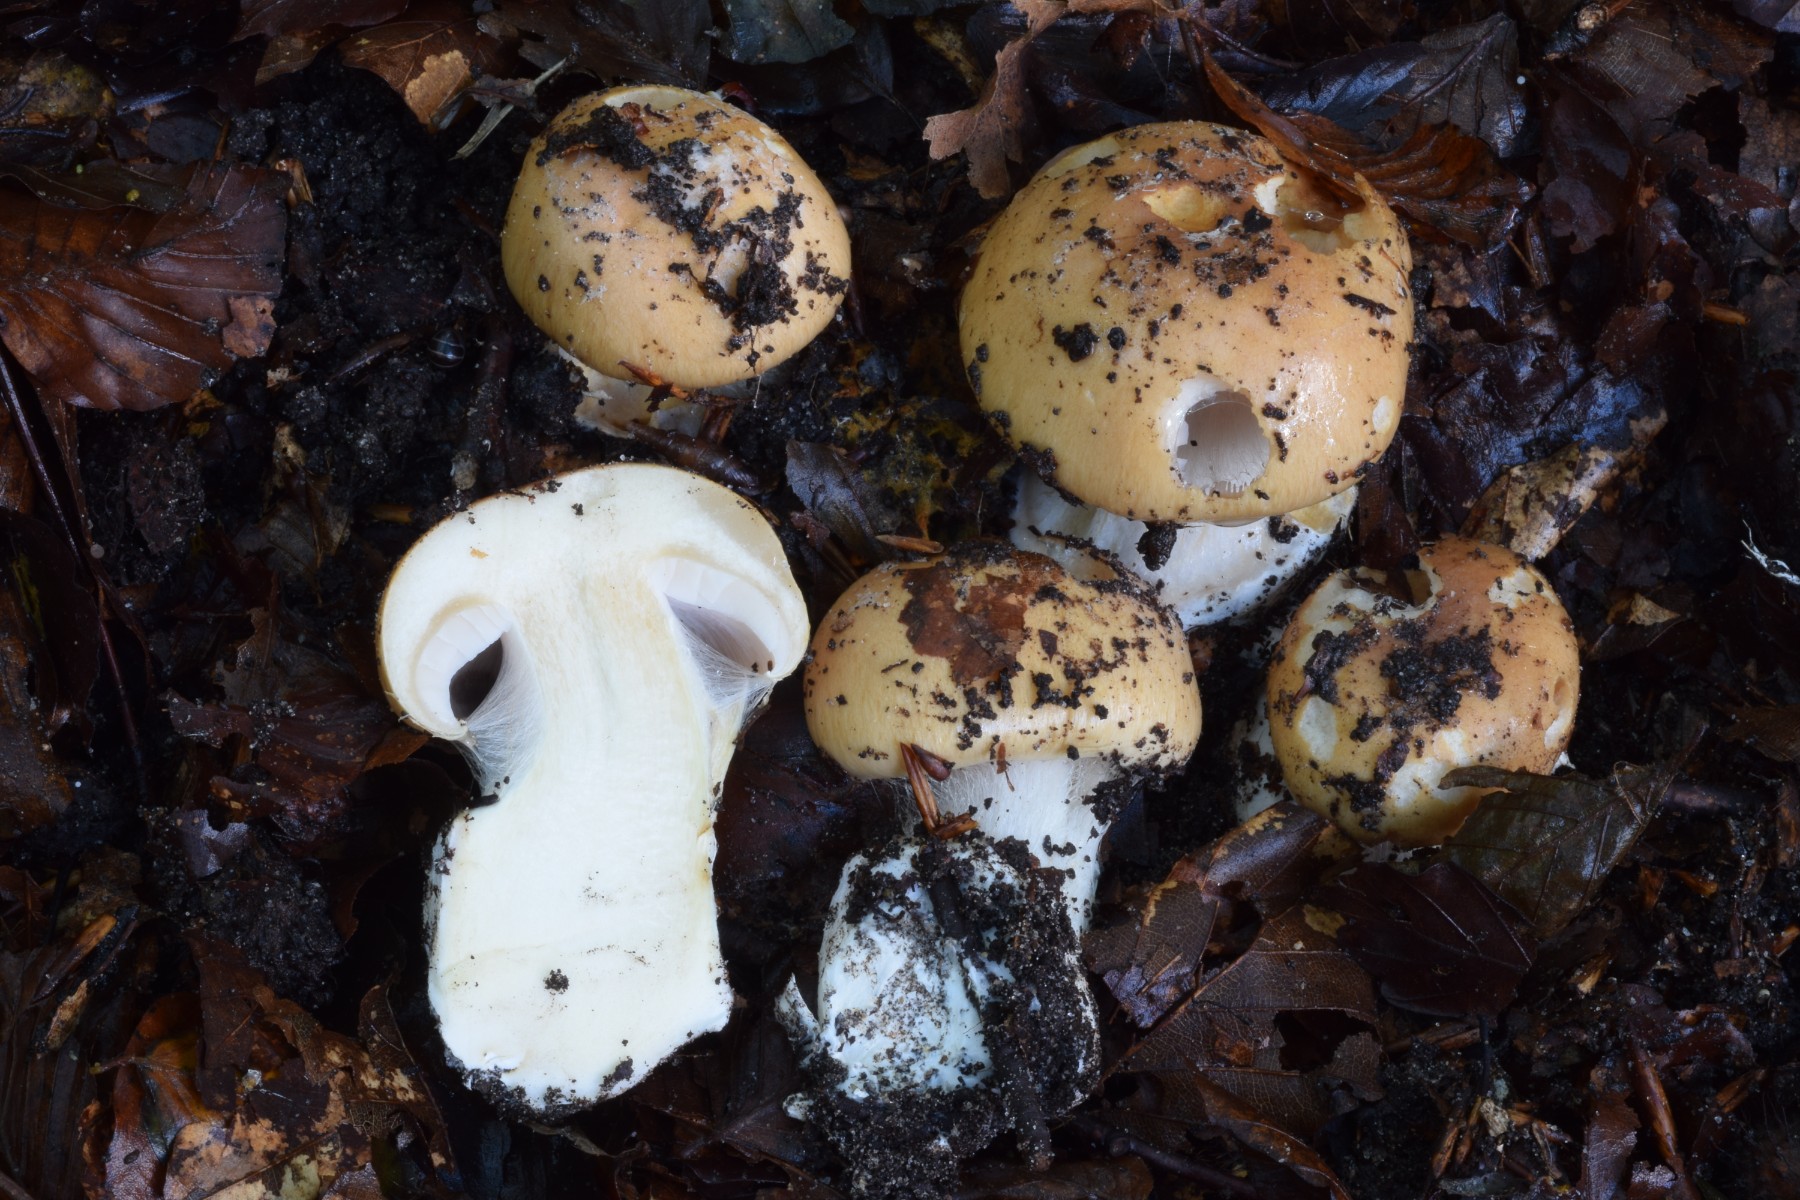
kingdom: Fungi
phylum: Basidiomycota
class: Agaricomycetes
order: Agaricales
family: Cortinariaceae
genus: Phlegmacium
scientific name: Phlegmacium aquilanum
